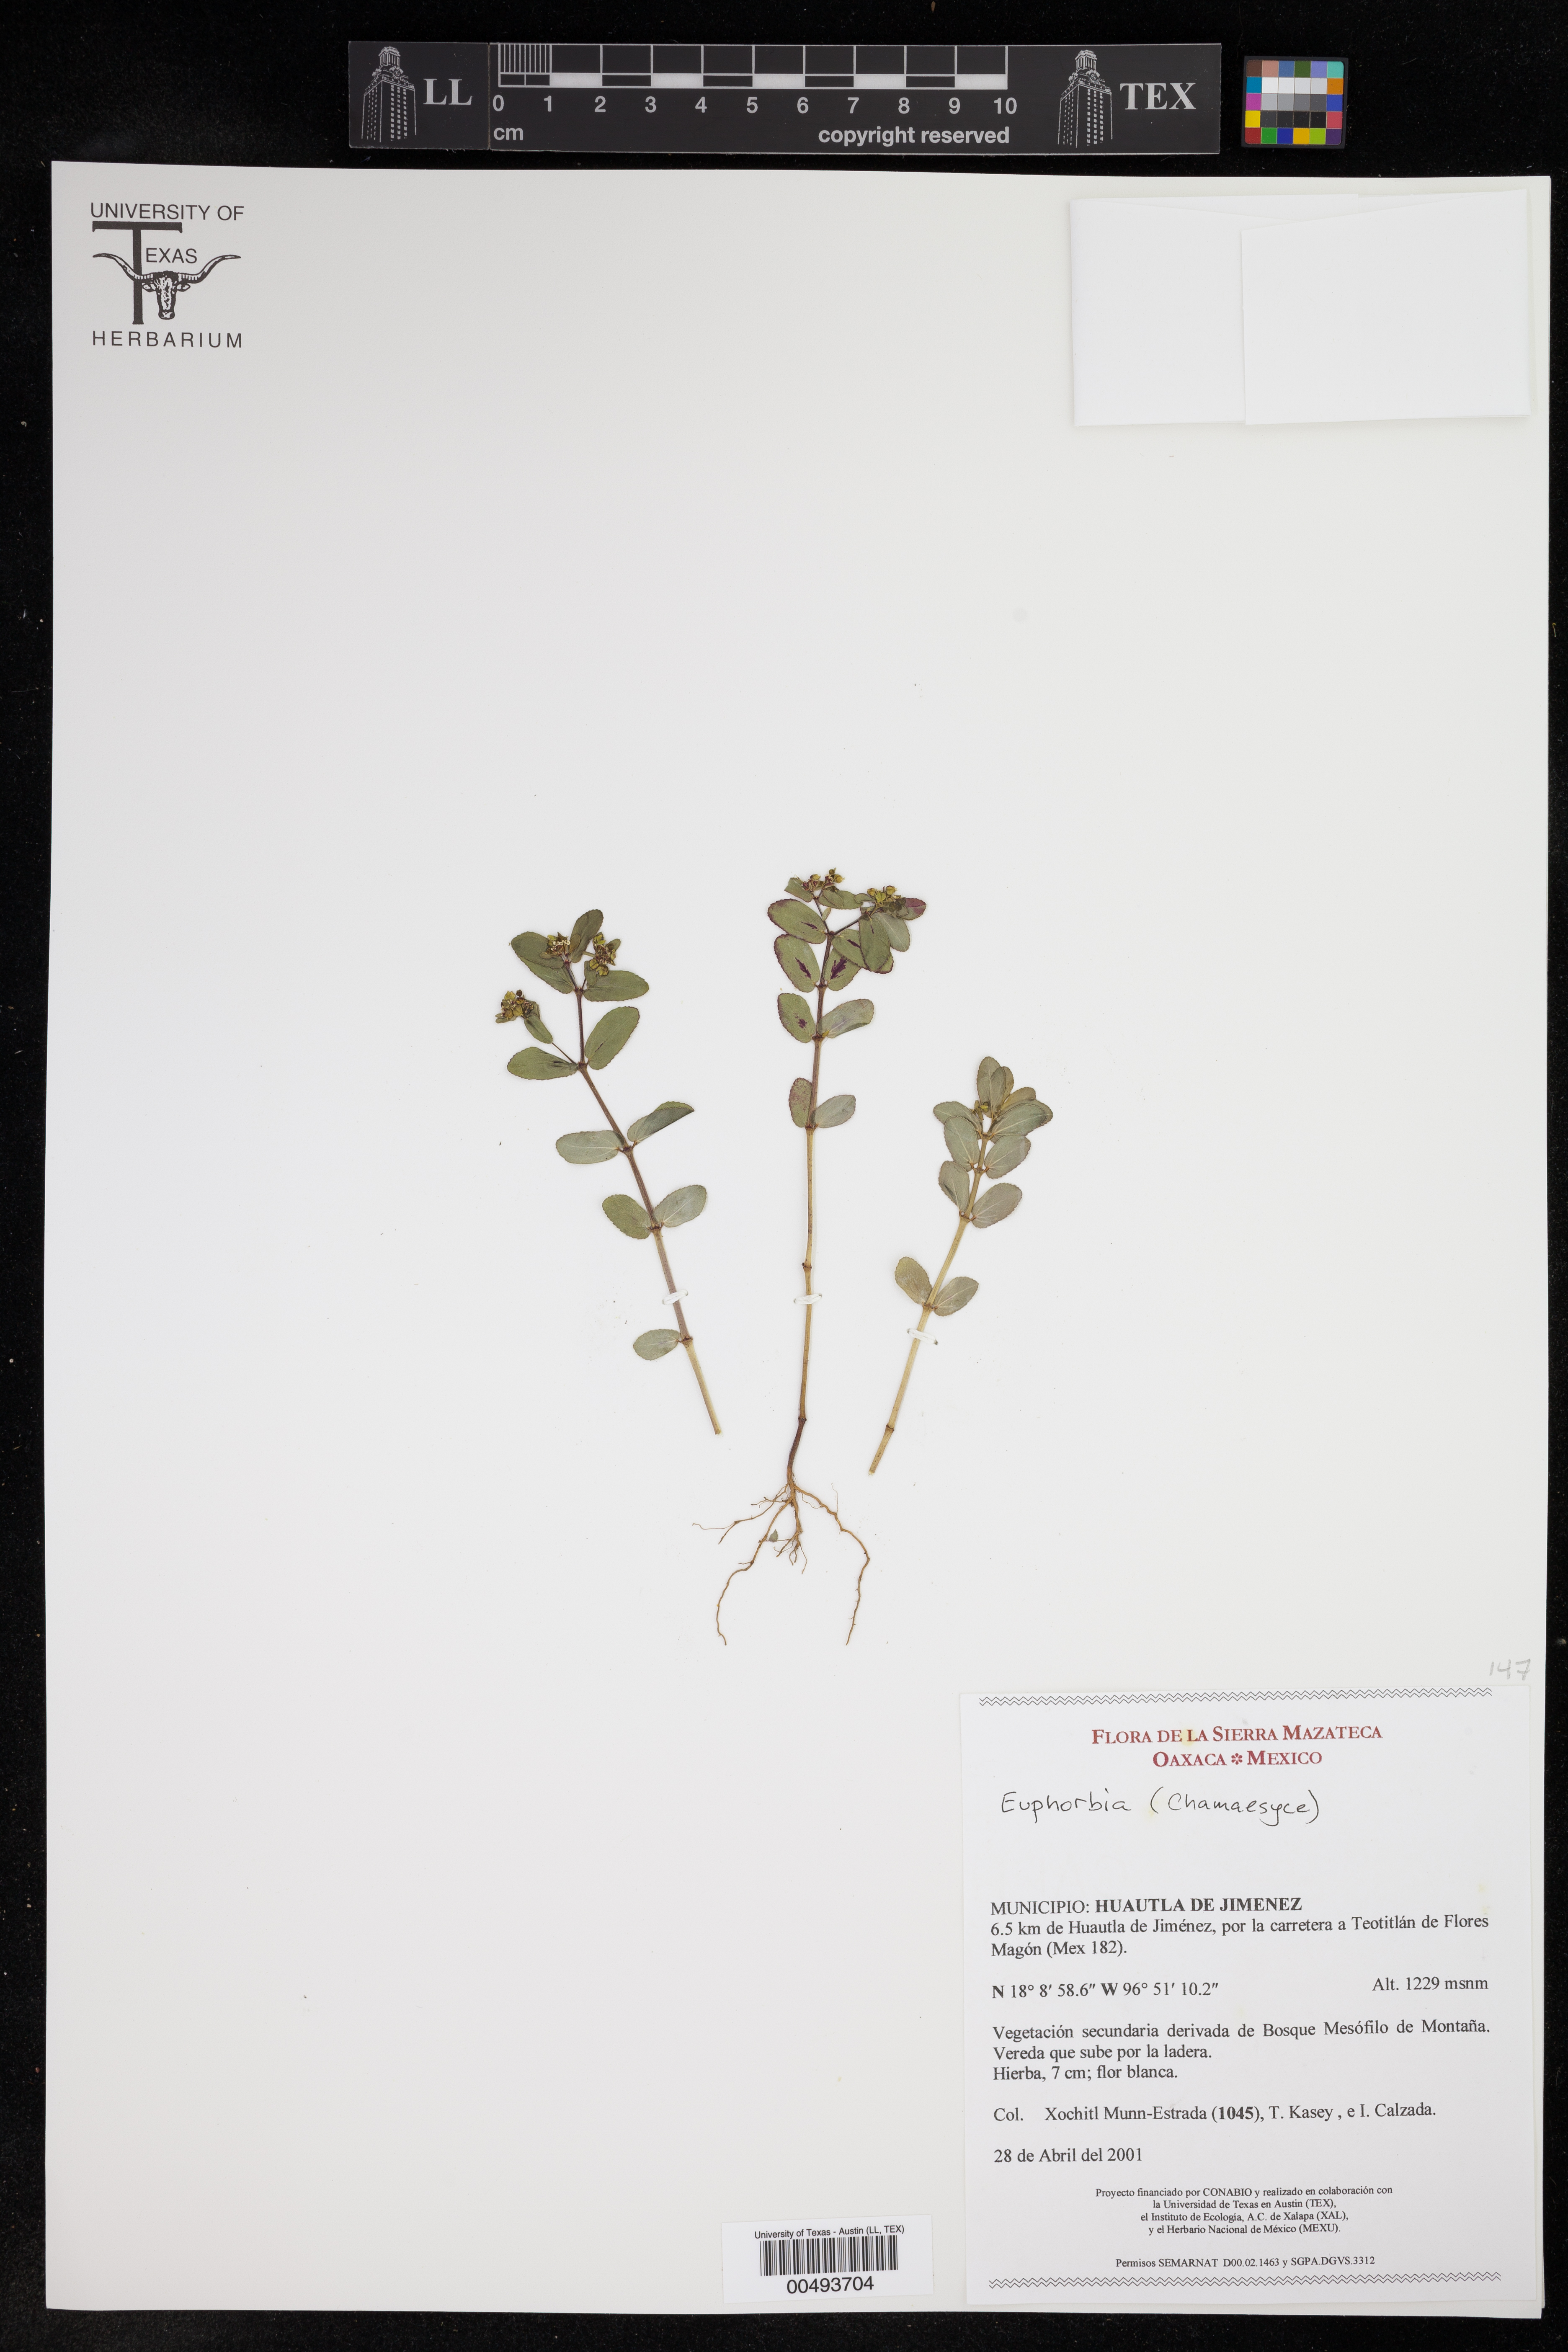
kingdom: Plantae
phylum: Tracheophyta
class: Magnoliopsida
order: Malpighiales
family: Euphorbiaceae
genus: Euphorbia
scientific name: Euphorbia
